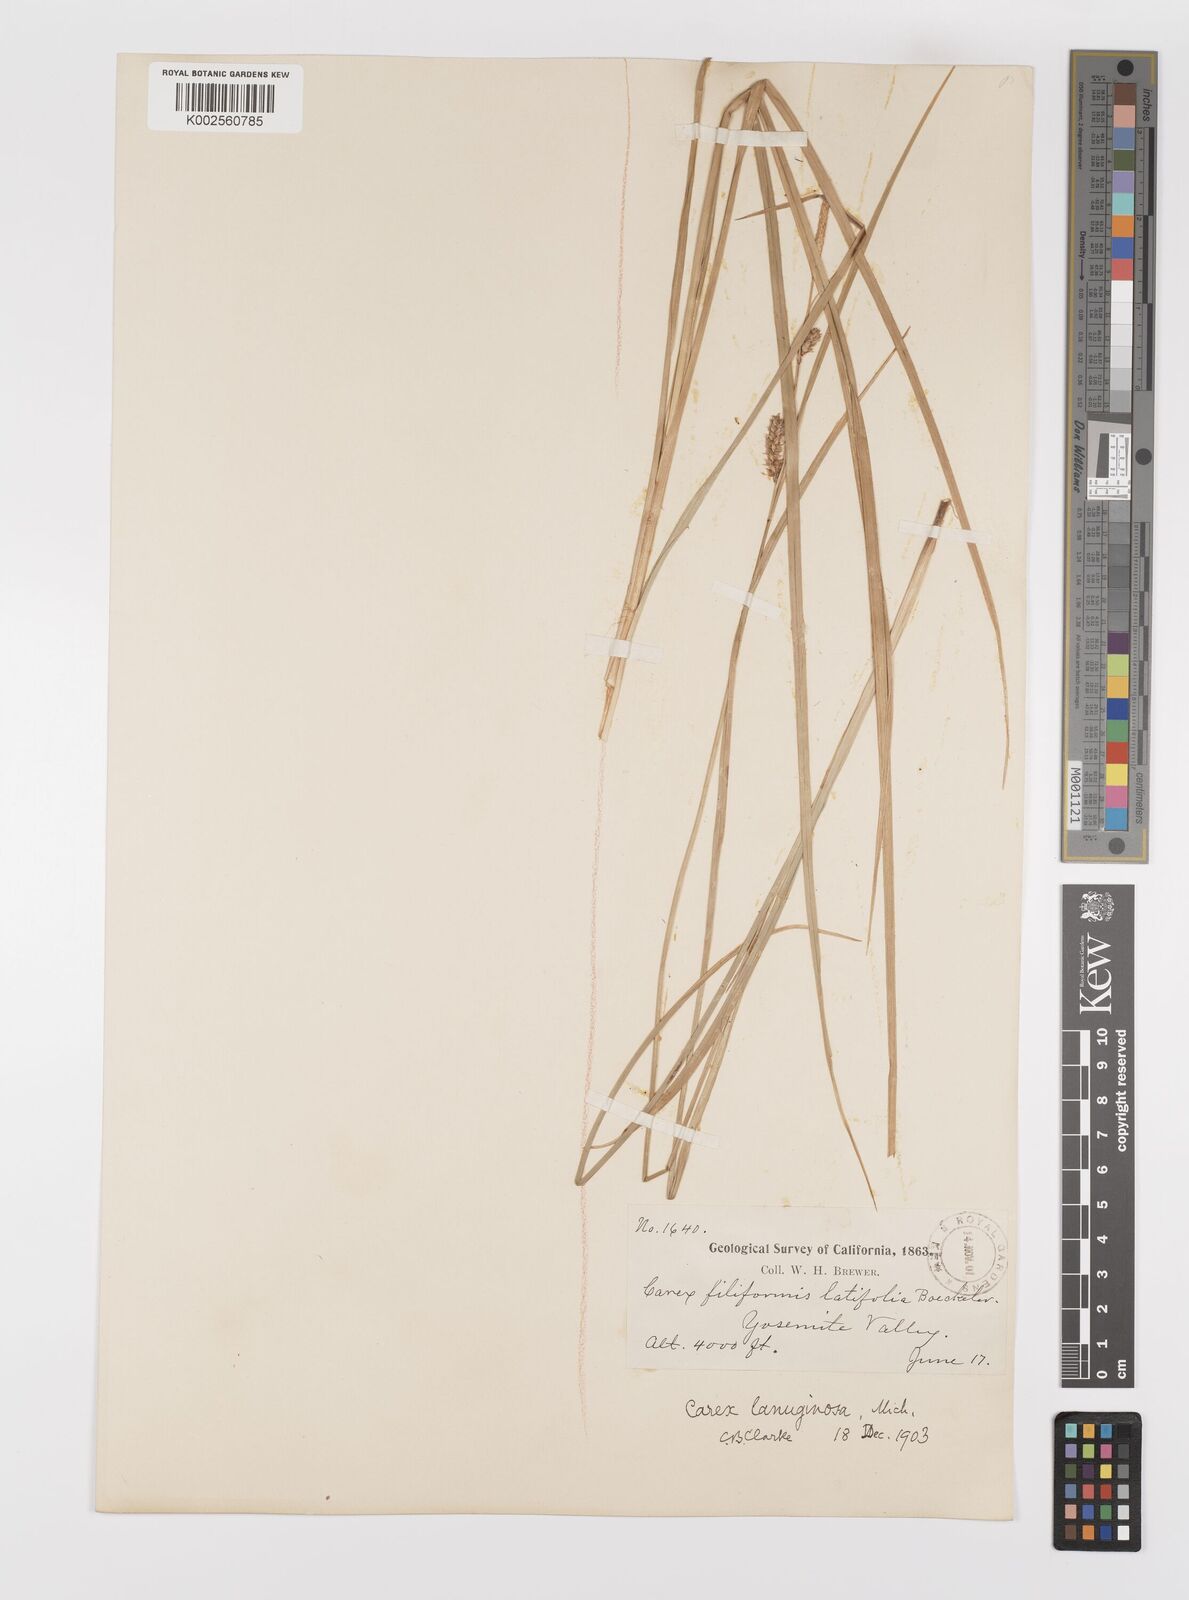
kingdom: Plantae
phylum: Tracheophyta
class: Liliopsida
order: Poales
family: Cyperaceae
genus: Carex
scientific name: Carex lasiocarpa
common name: Slender sedge
